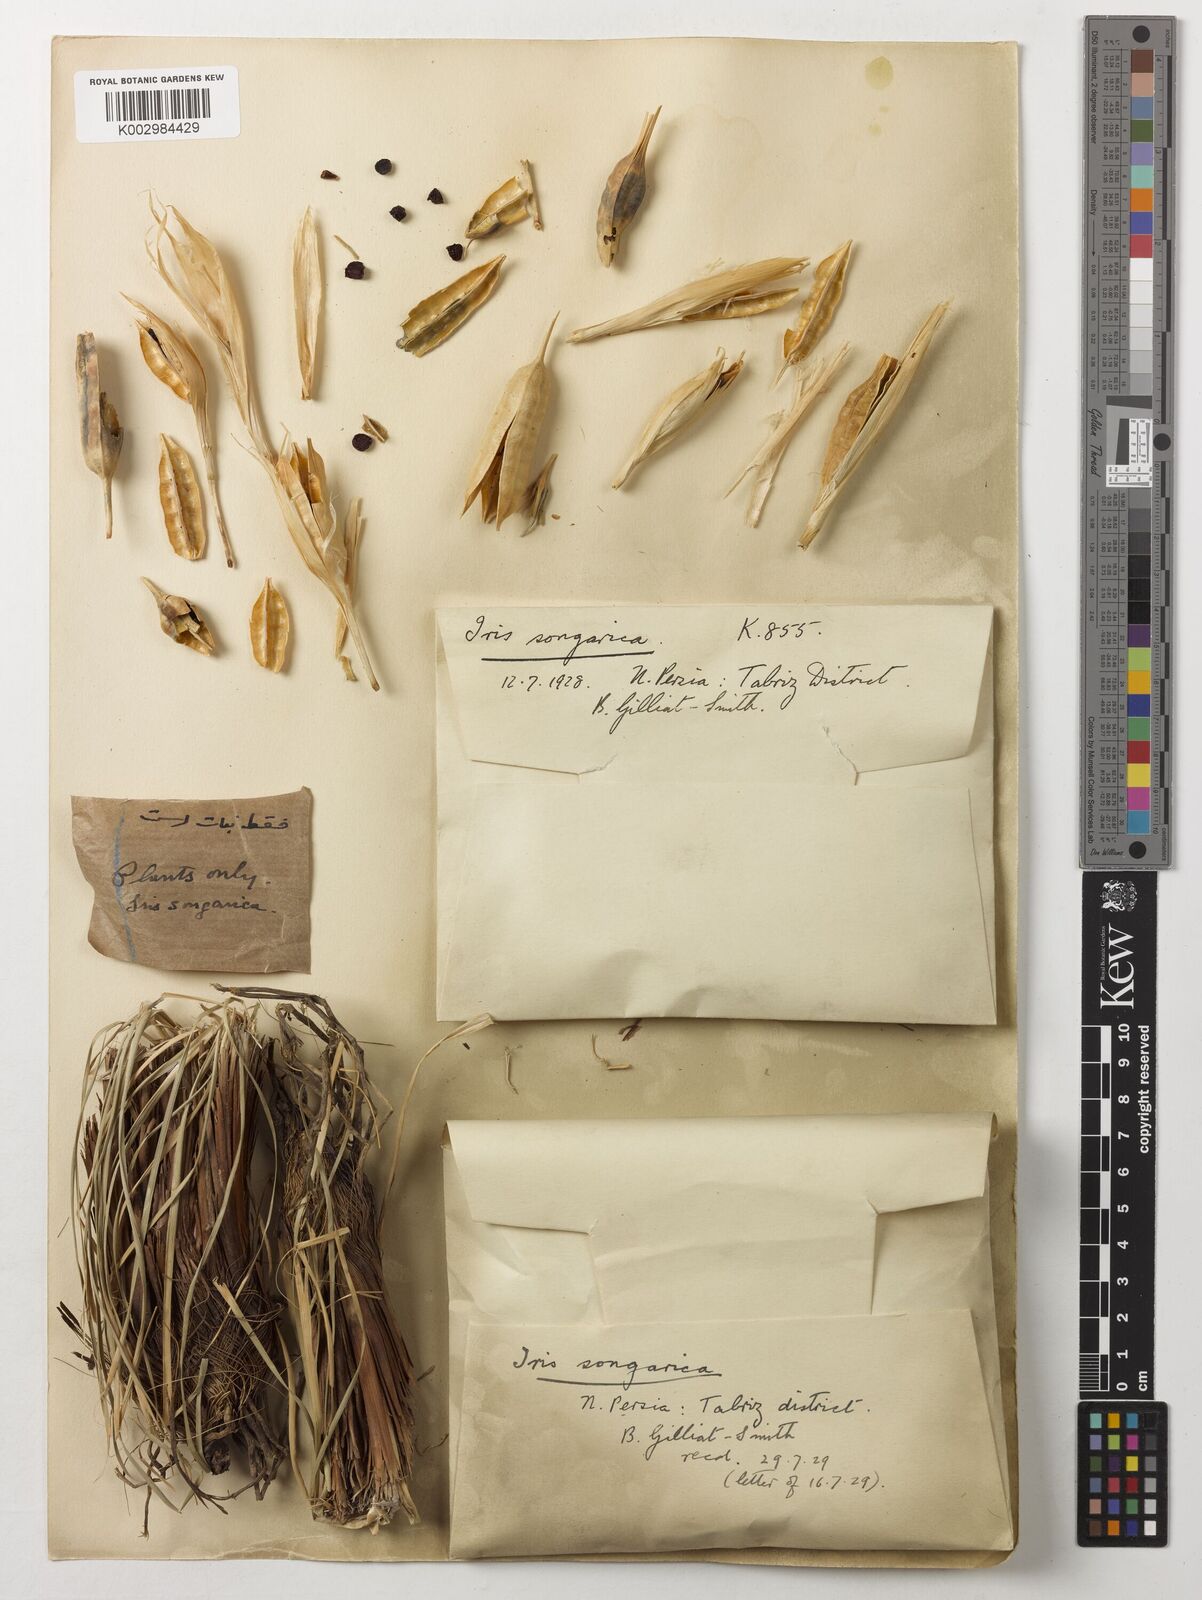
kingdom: Plantae
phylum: Tracheophyta
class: Liliopsida
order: Asparagales
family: Iridaceae
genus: Iris
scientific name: Iris songarica
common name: Songar iris
